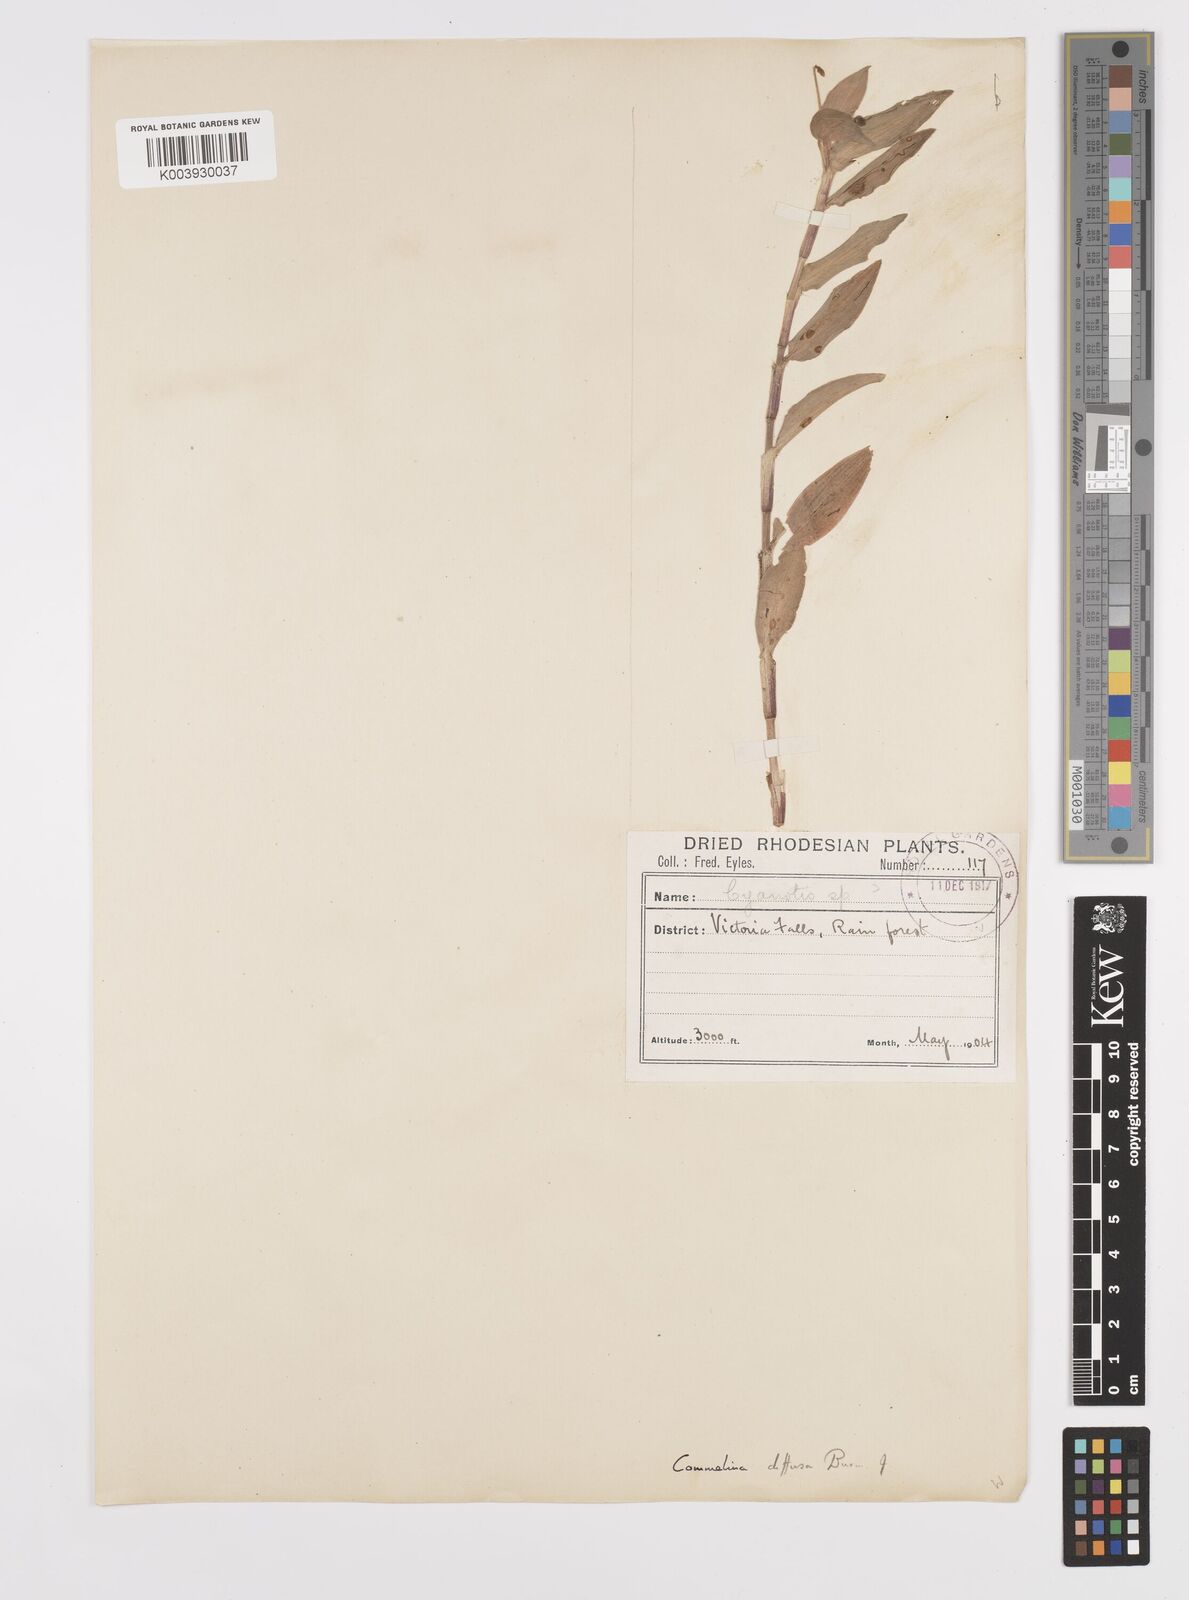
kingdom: Plantae
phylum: Tracheophyta
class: Liliopsida
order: Commelinales
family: Commelinaceae
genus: Commelina
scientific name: Commelina diffusa
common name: Climbing dayflower
